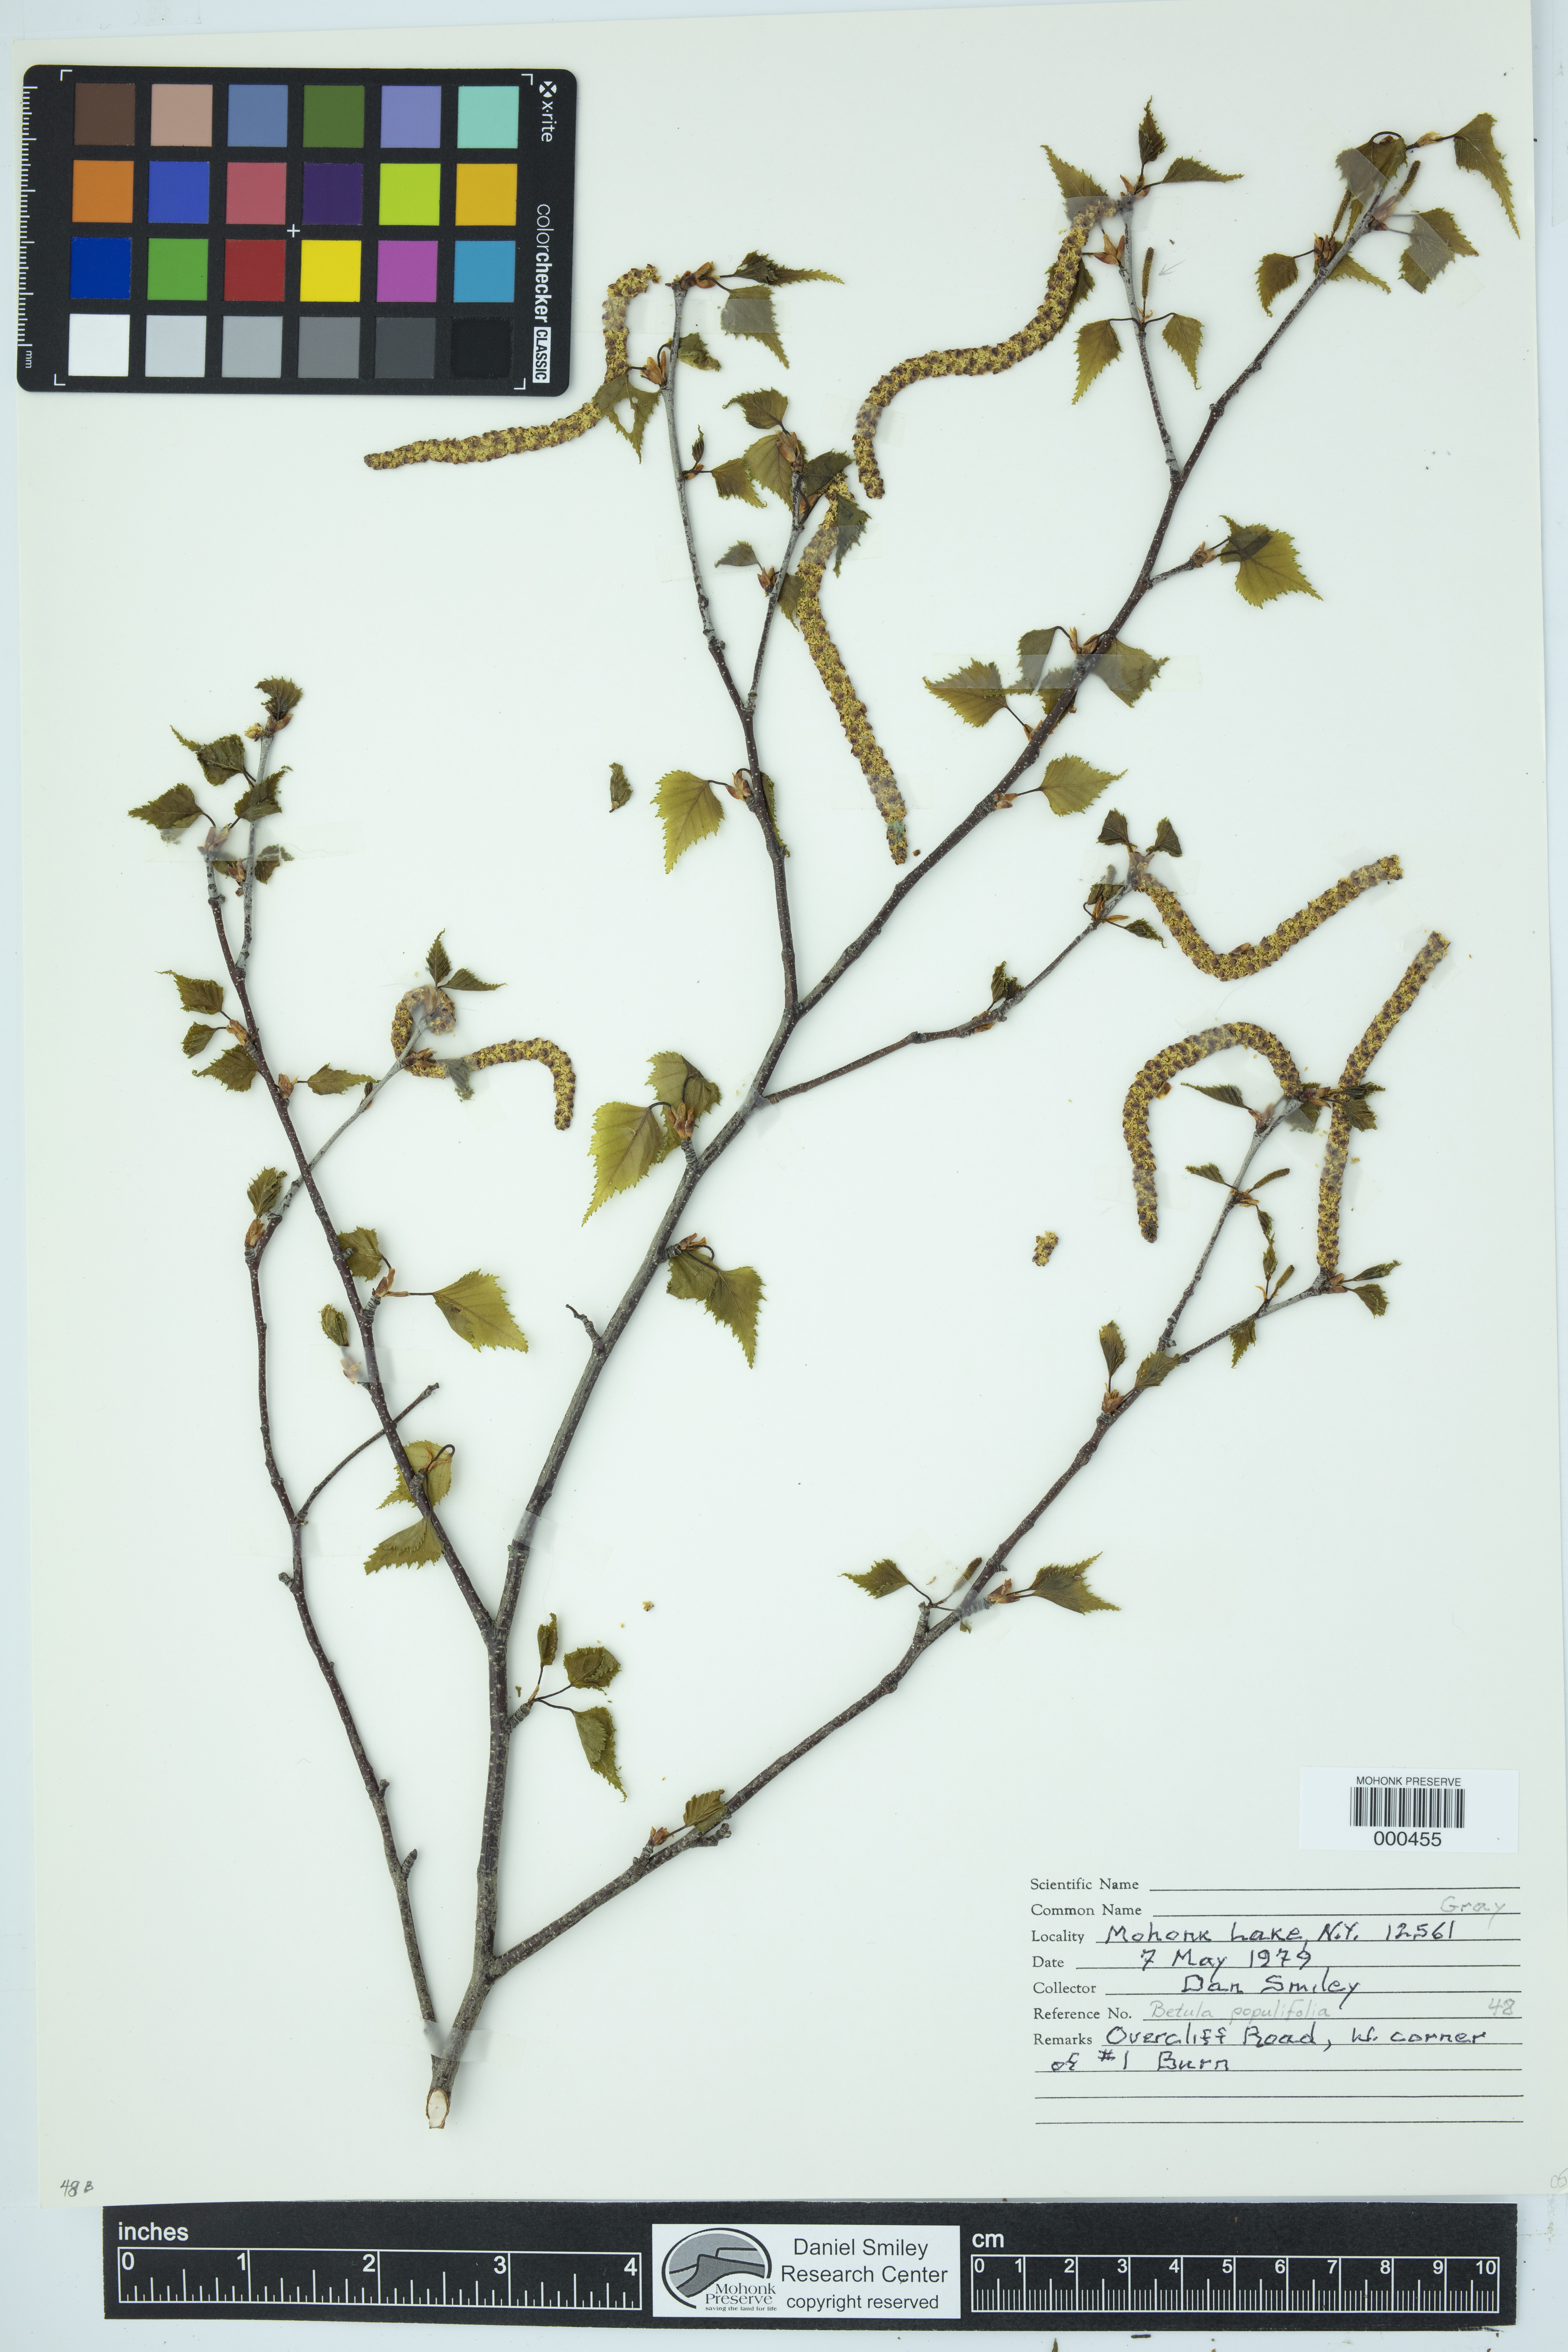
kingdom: Plantae
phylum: Tracheophyta
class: Magnoliopsida
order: Fagales
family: Betulaceae
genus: Betula
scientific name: Betula populifolia
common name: Fire birch
